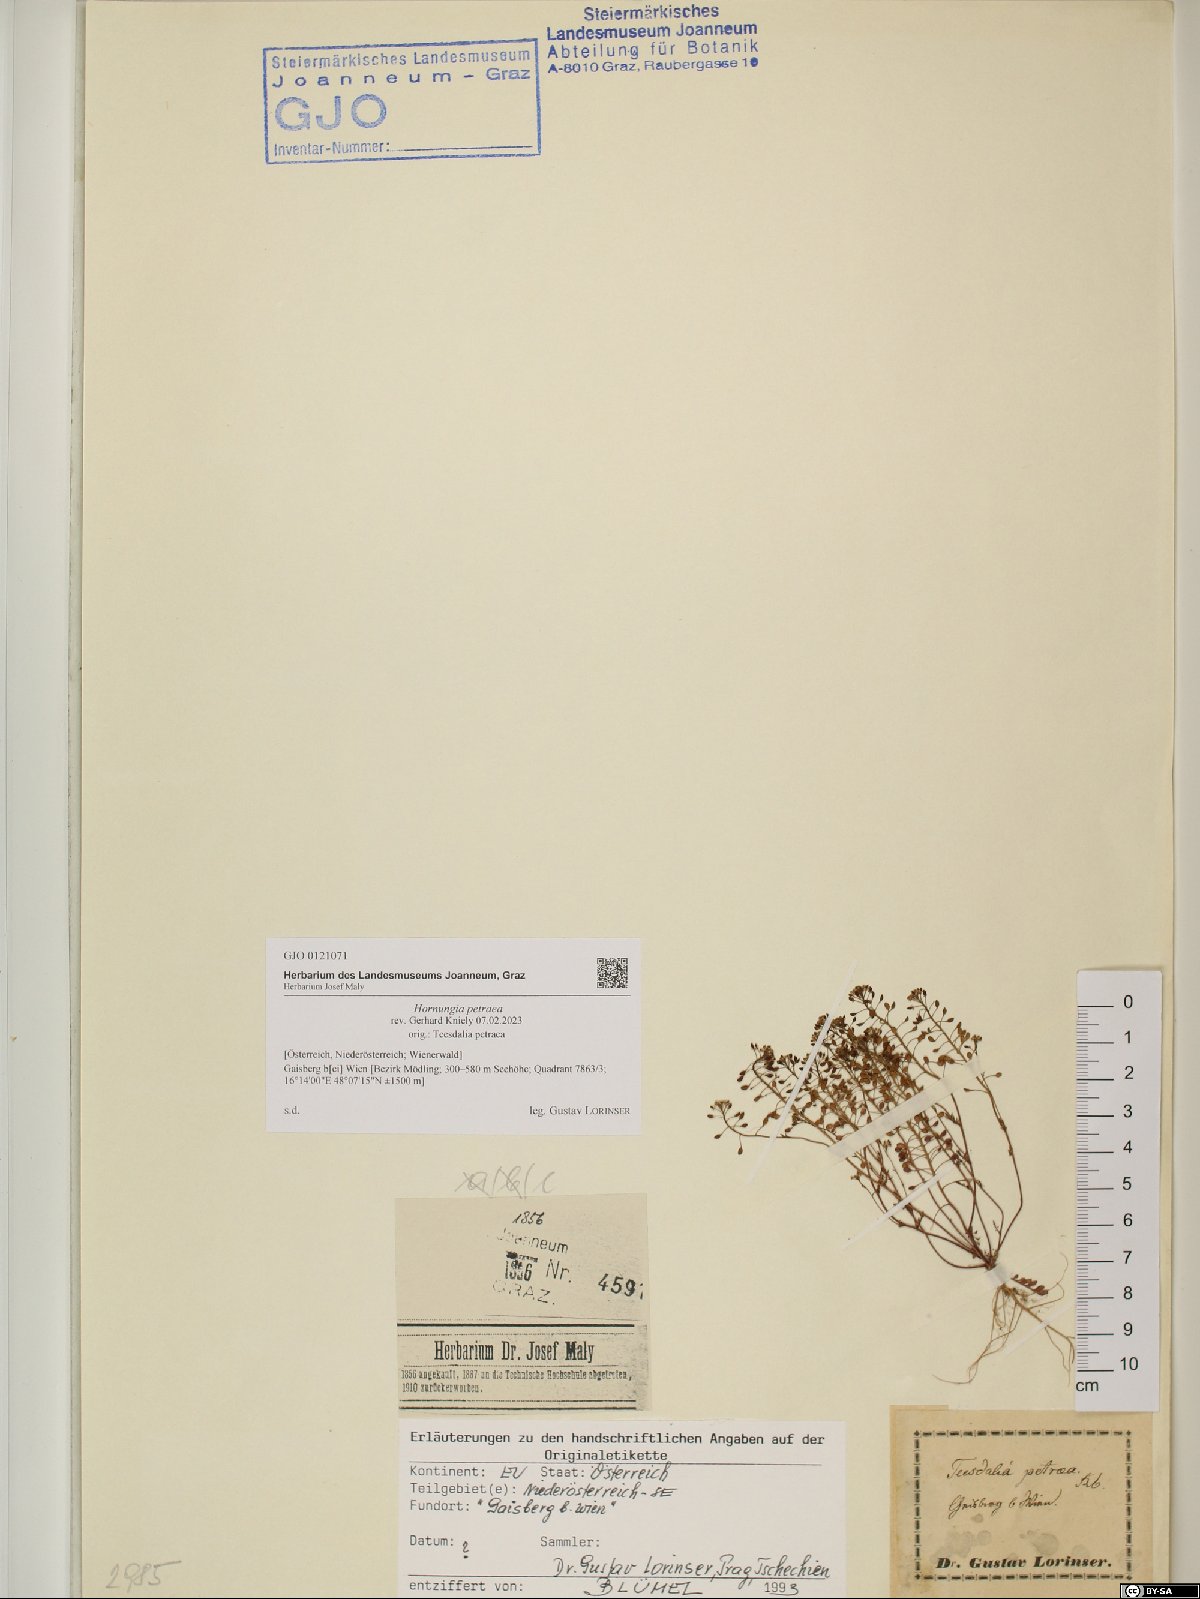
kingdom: Plantae
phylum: Tracheophyta
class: Magnoliopsida
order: Brassicales
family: Brassicaceae
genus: Hornungia
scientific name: Hornungia petraea
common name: Hutchinsia
